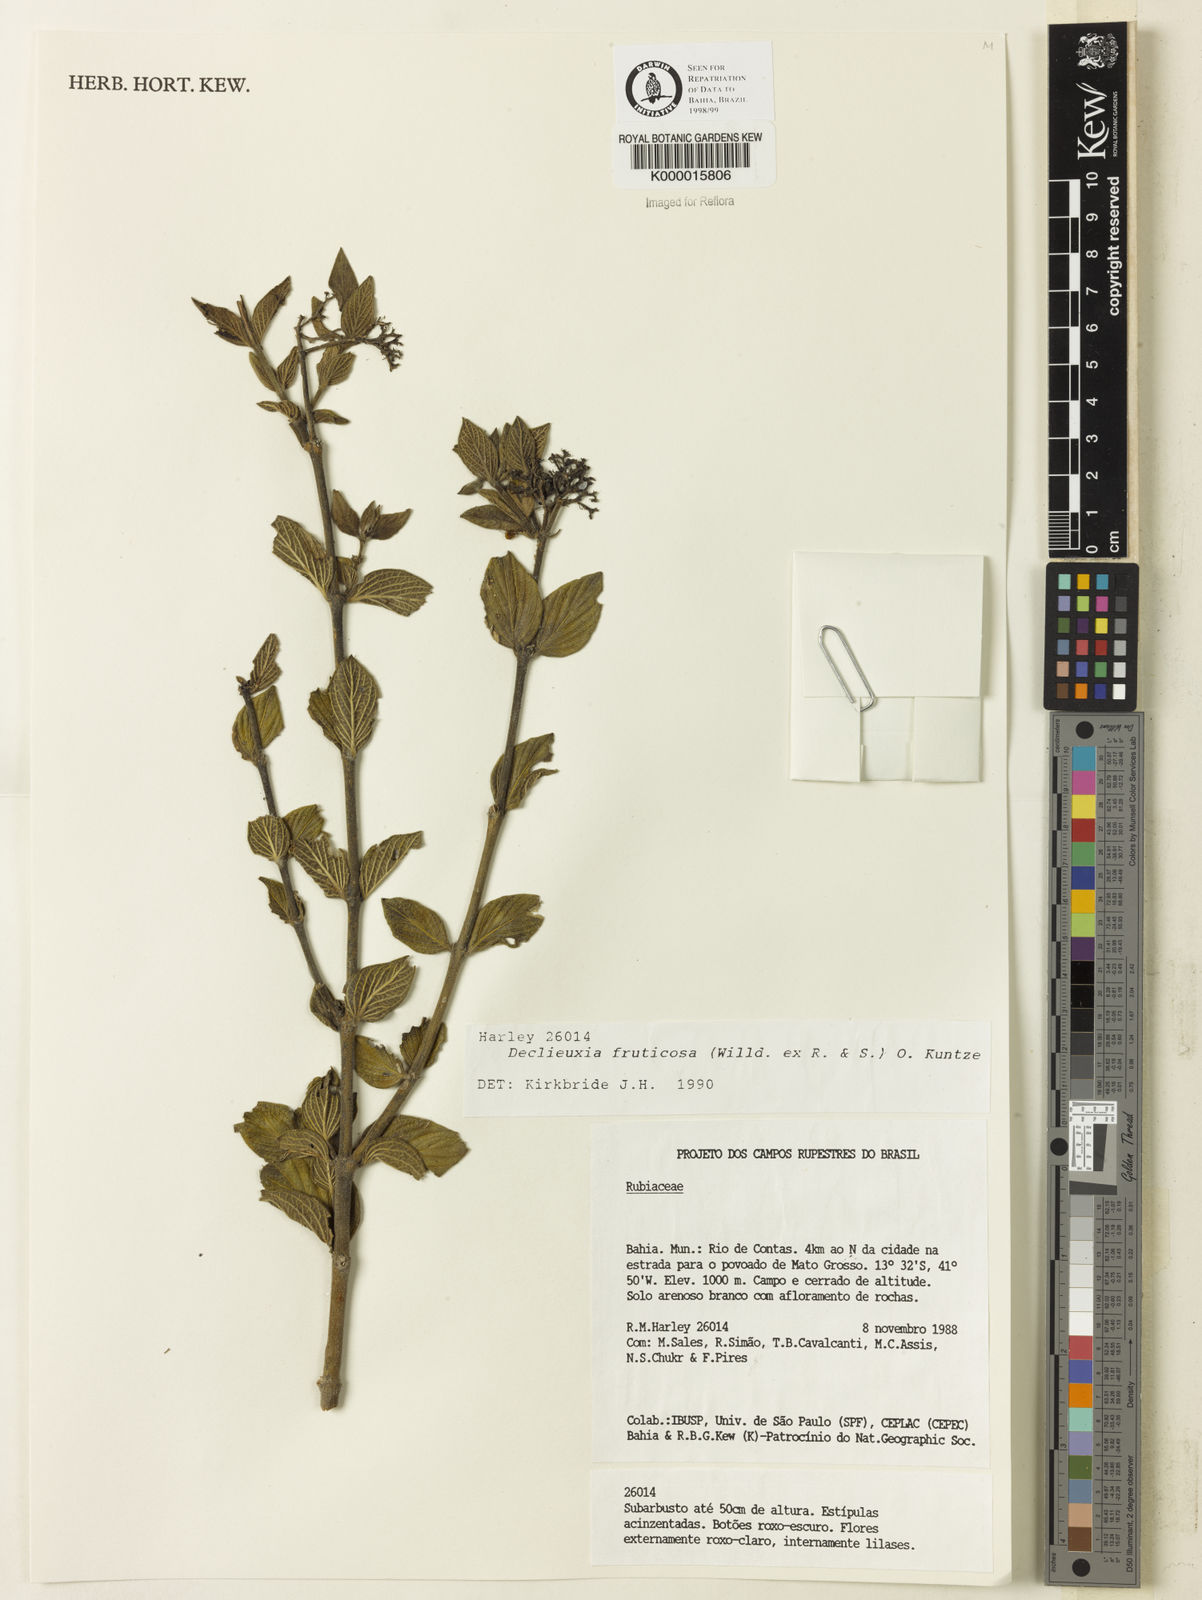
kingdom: Plantae
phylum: Tracheophyta
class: Magnoliopsida
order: Gentianales
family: Rubiaceae
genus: Declieuxia
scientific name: Declieuxia fruticosa
